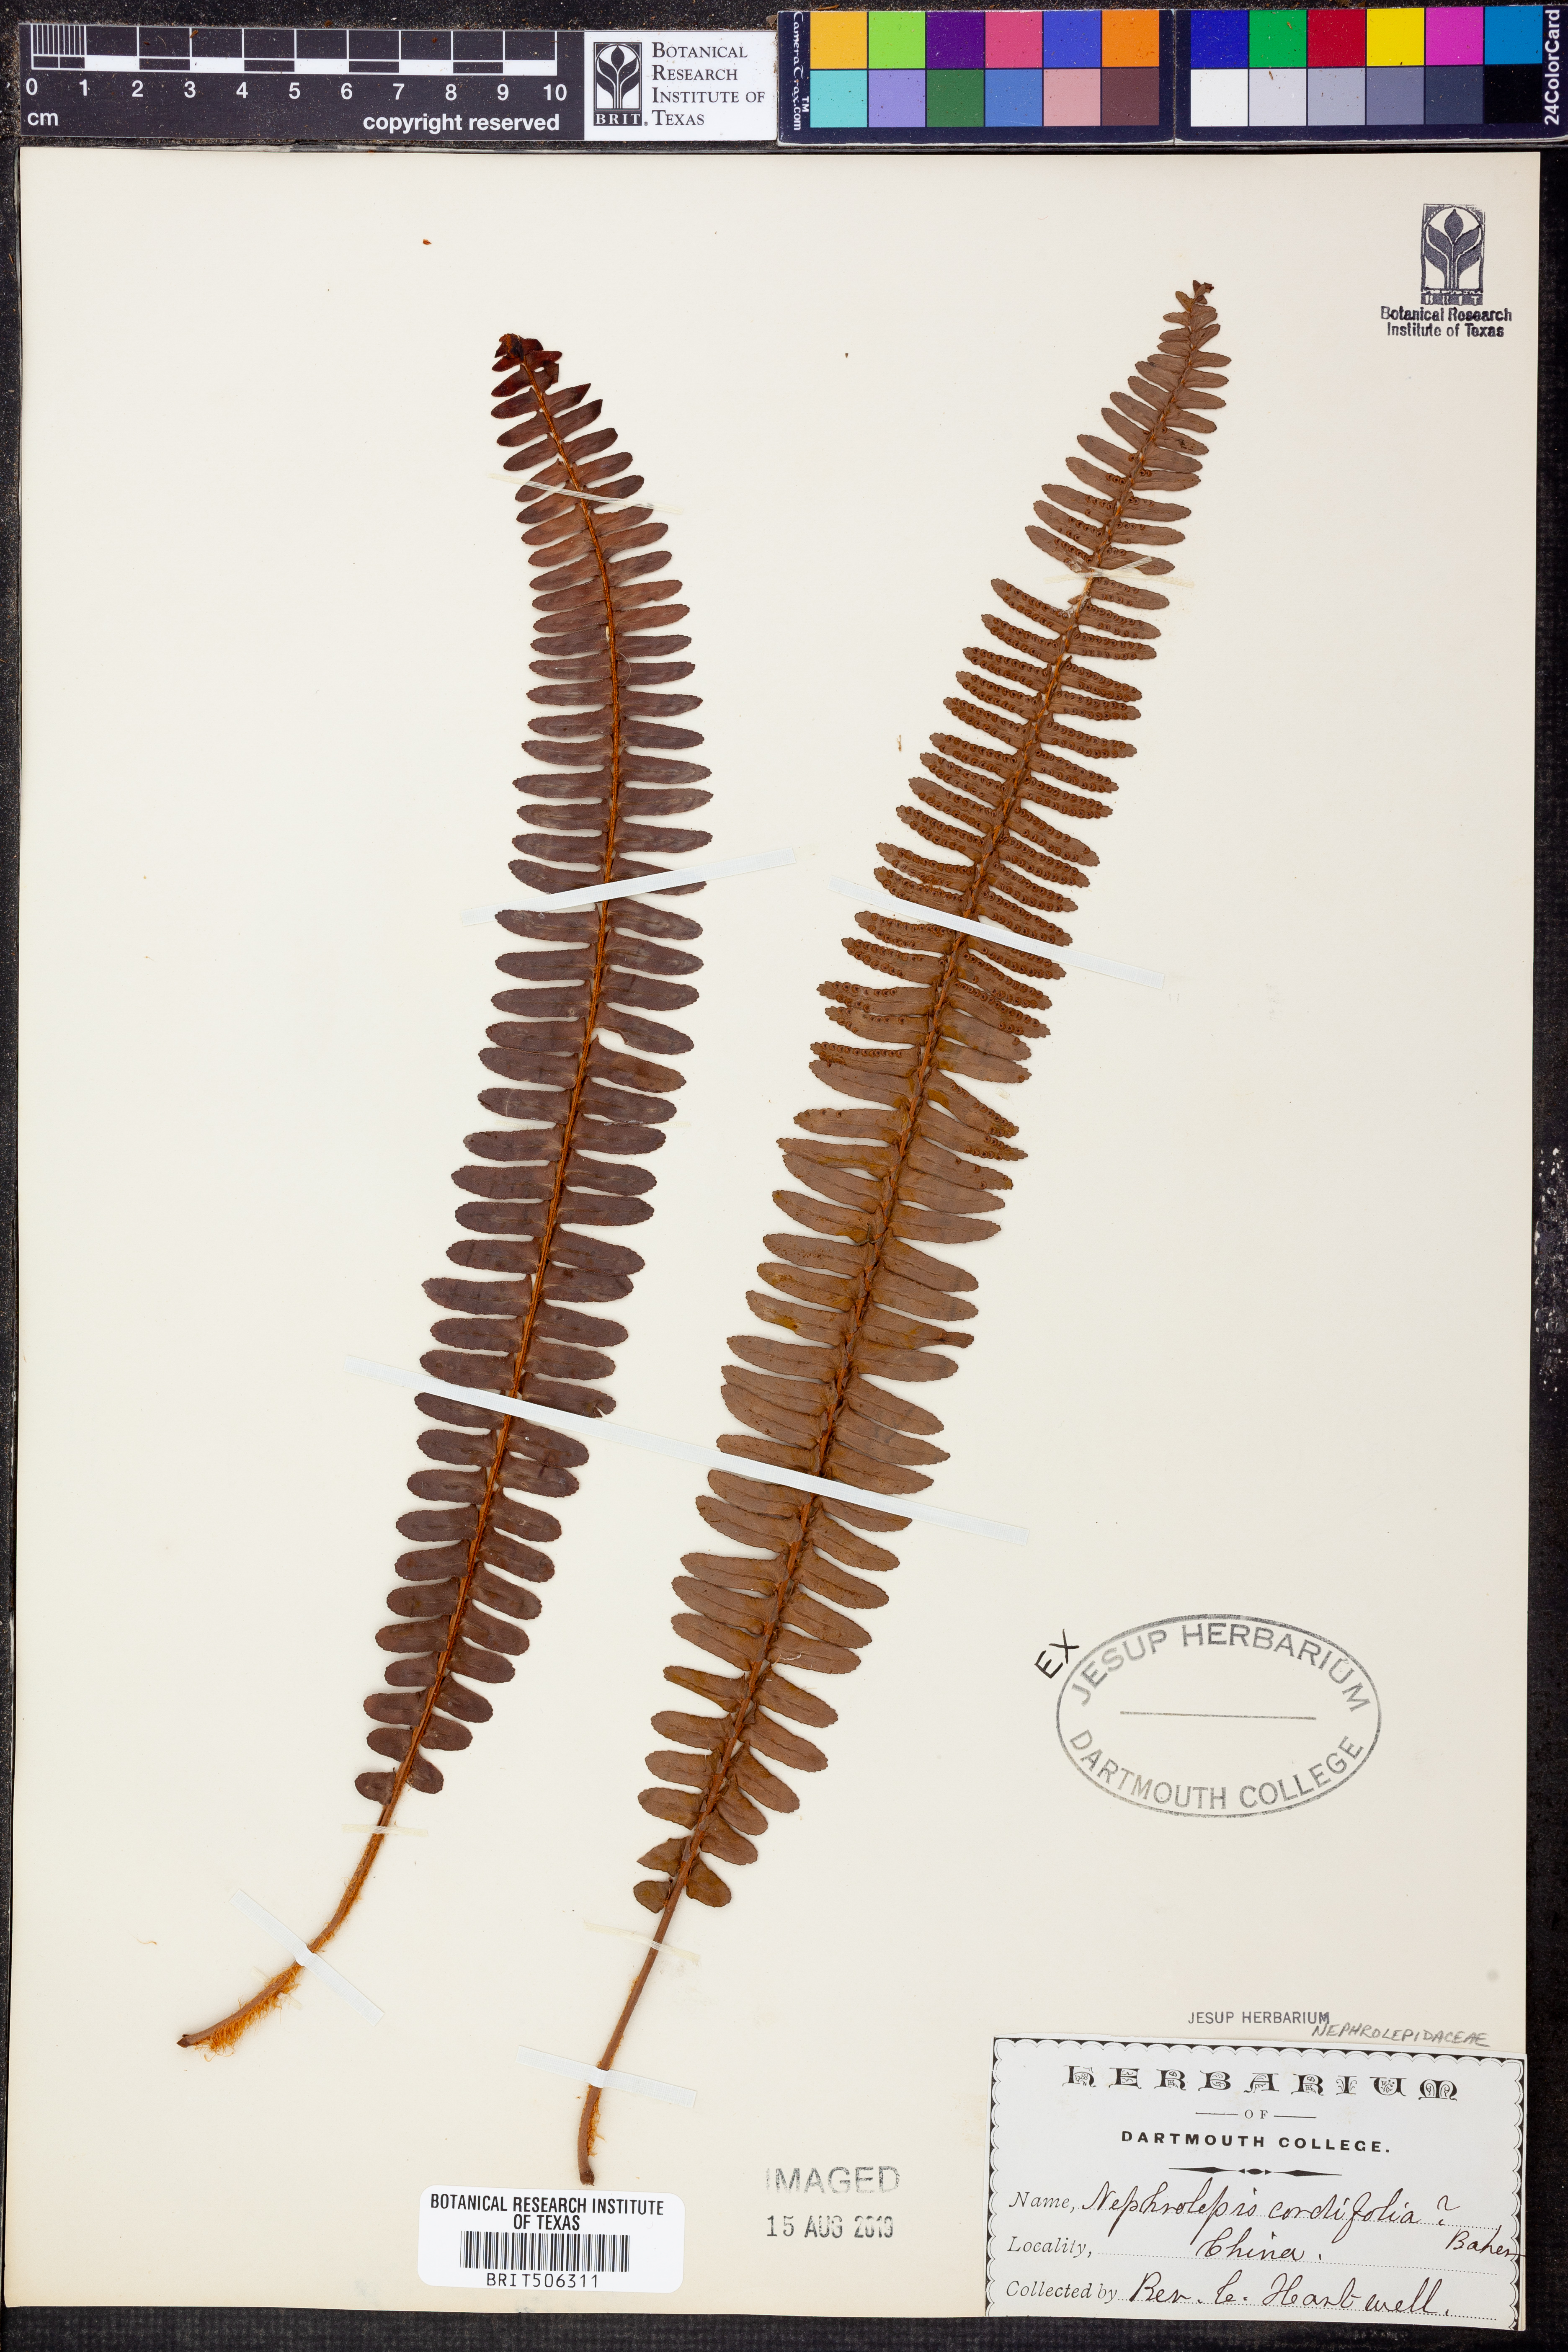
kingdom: Plantae
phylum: Tracheophyta
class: Polypodiopsida
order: Polypodiales
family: Nephrolepidaceae
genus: Nephrolepis
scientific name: Nephrolepis cordifolia
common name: Narrow swordfern
